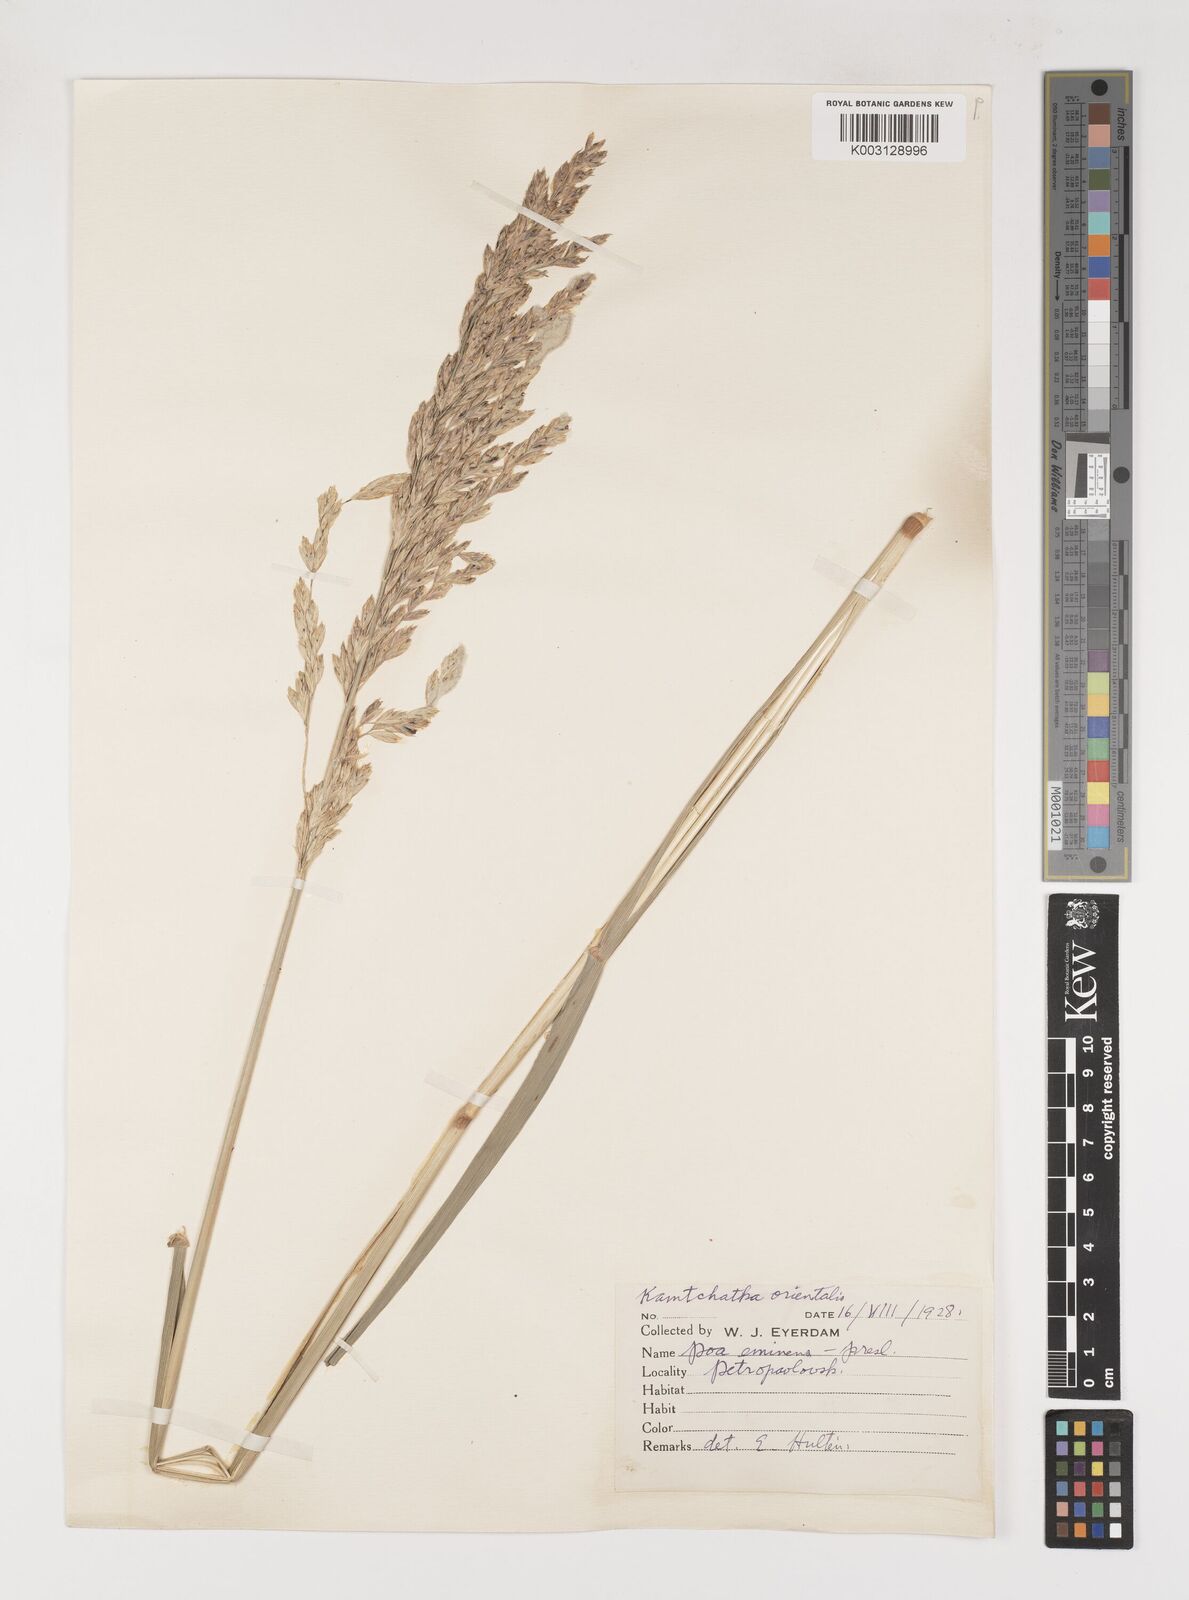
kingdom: Plantae
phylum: Tracheophyta
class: Liliopsida
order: Poales
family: Poaceae
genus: Arctopoa
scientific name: Arctopoa eminens
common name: Eminent bluegrass
